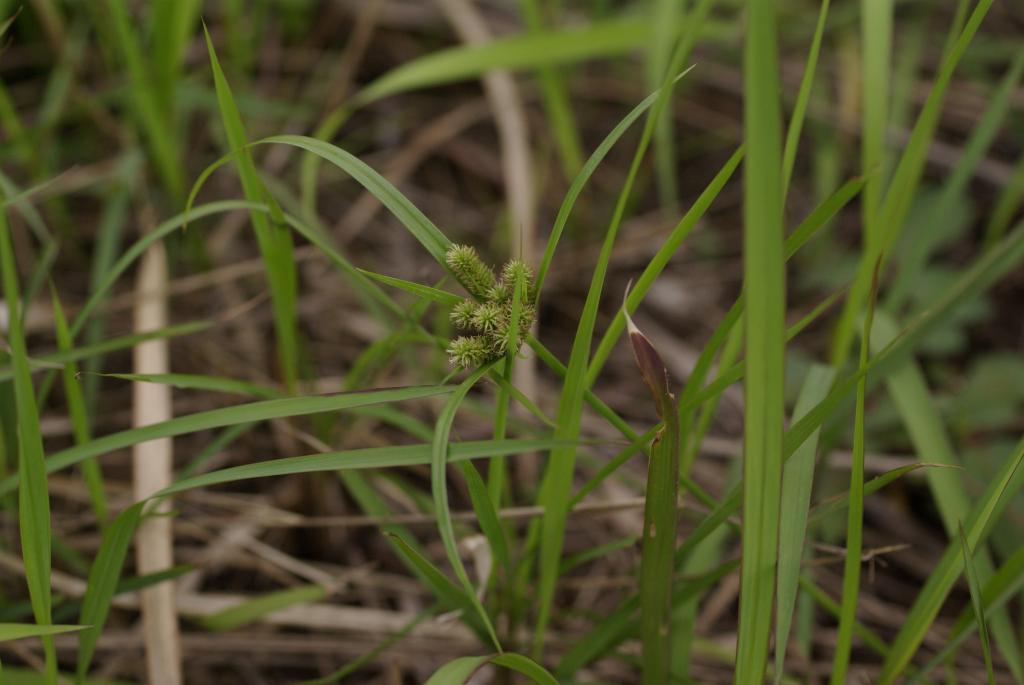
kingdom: Plantae
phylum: Tracheophyta
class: Liliopsida
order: Poales
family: Cyperaceae
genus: Cyperus
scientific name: Cyperus cyperoides
